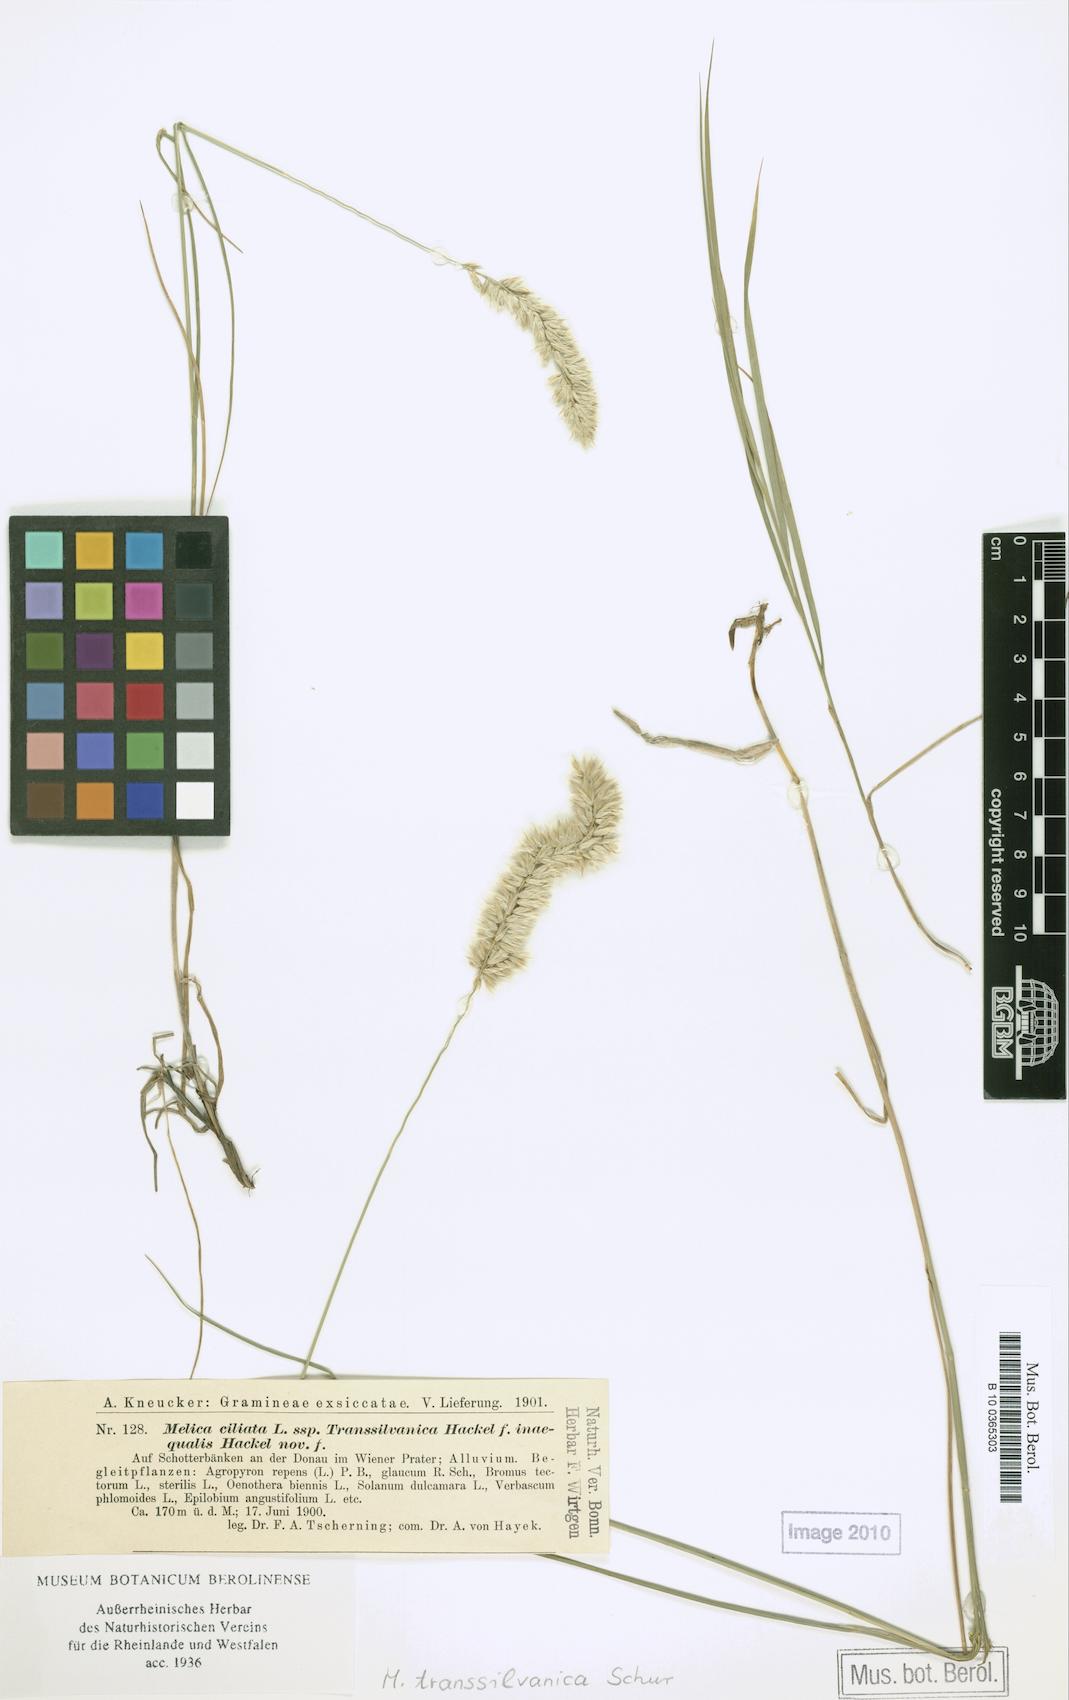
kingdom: Plantae
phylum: Tracheophyta
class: Liliopsida
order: Poales
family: Poaceae
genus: Melica
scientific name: Melica ciliata
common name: Hairy melicgrass
